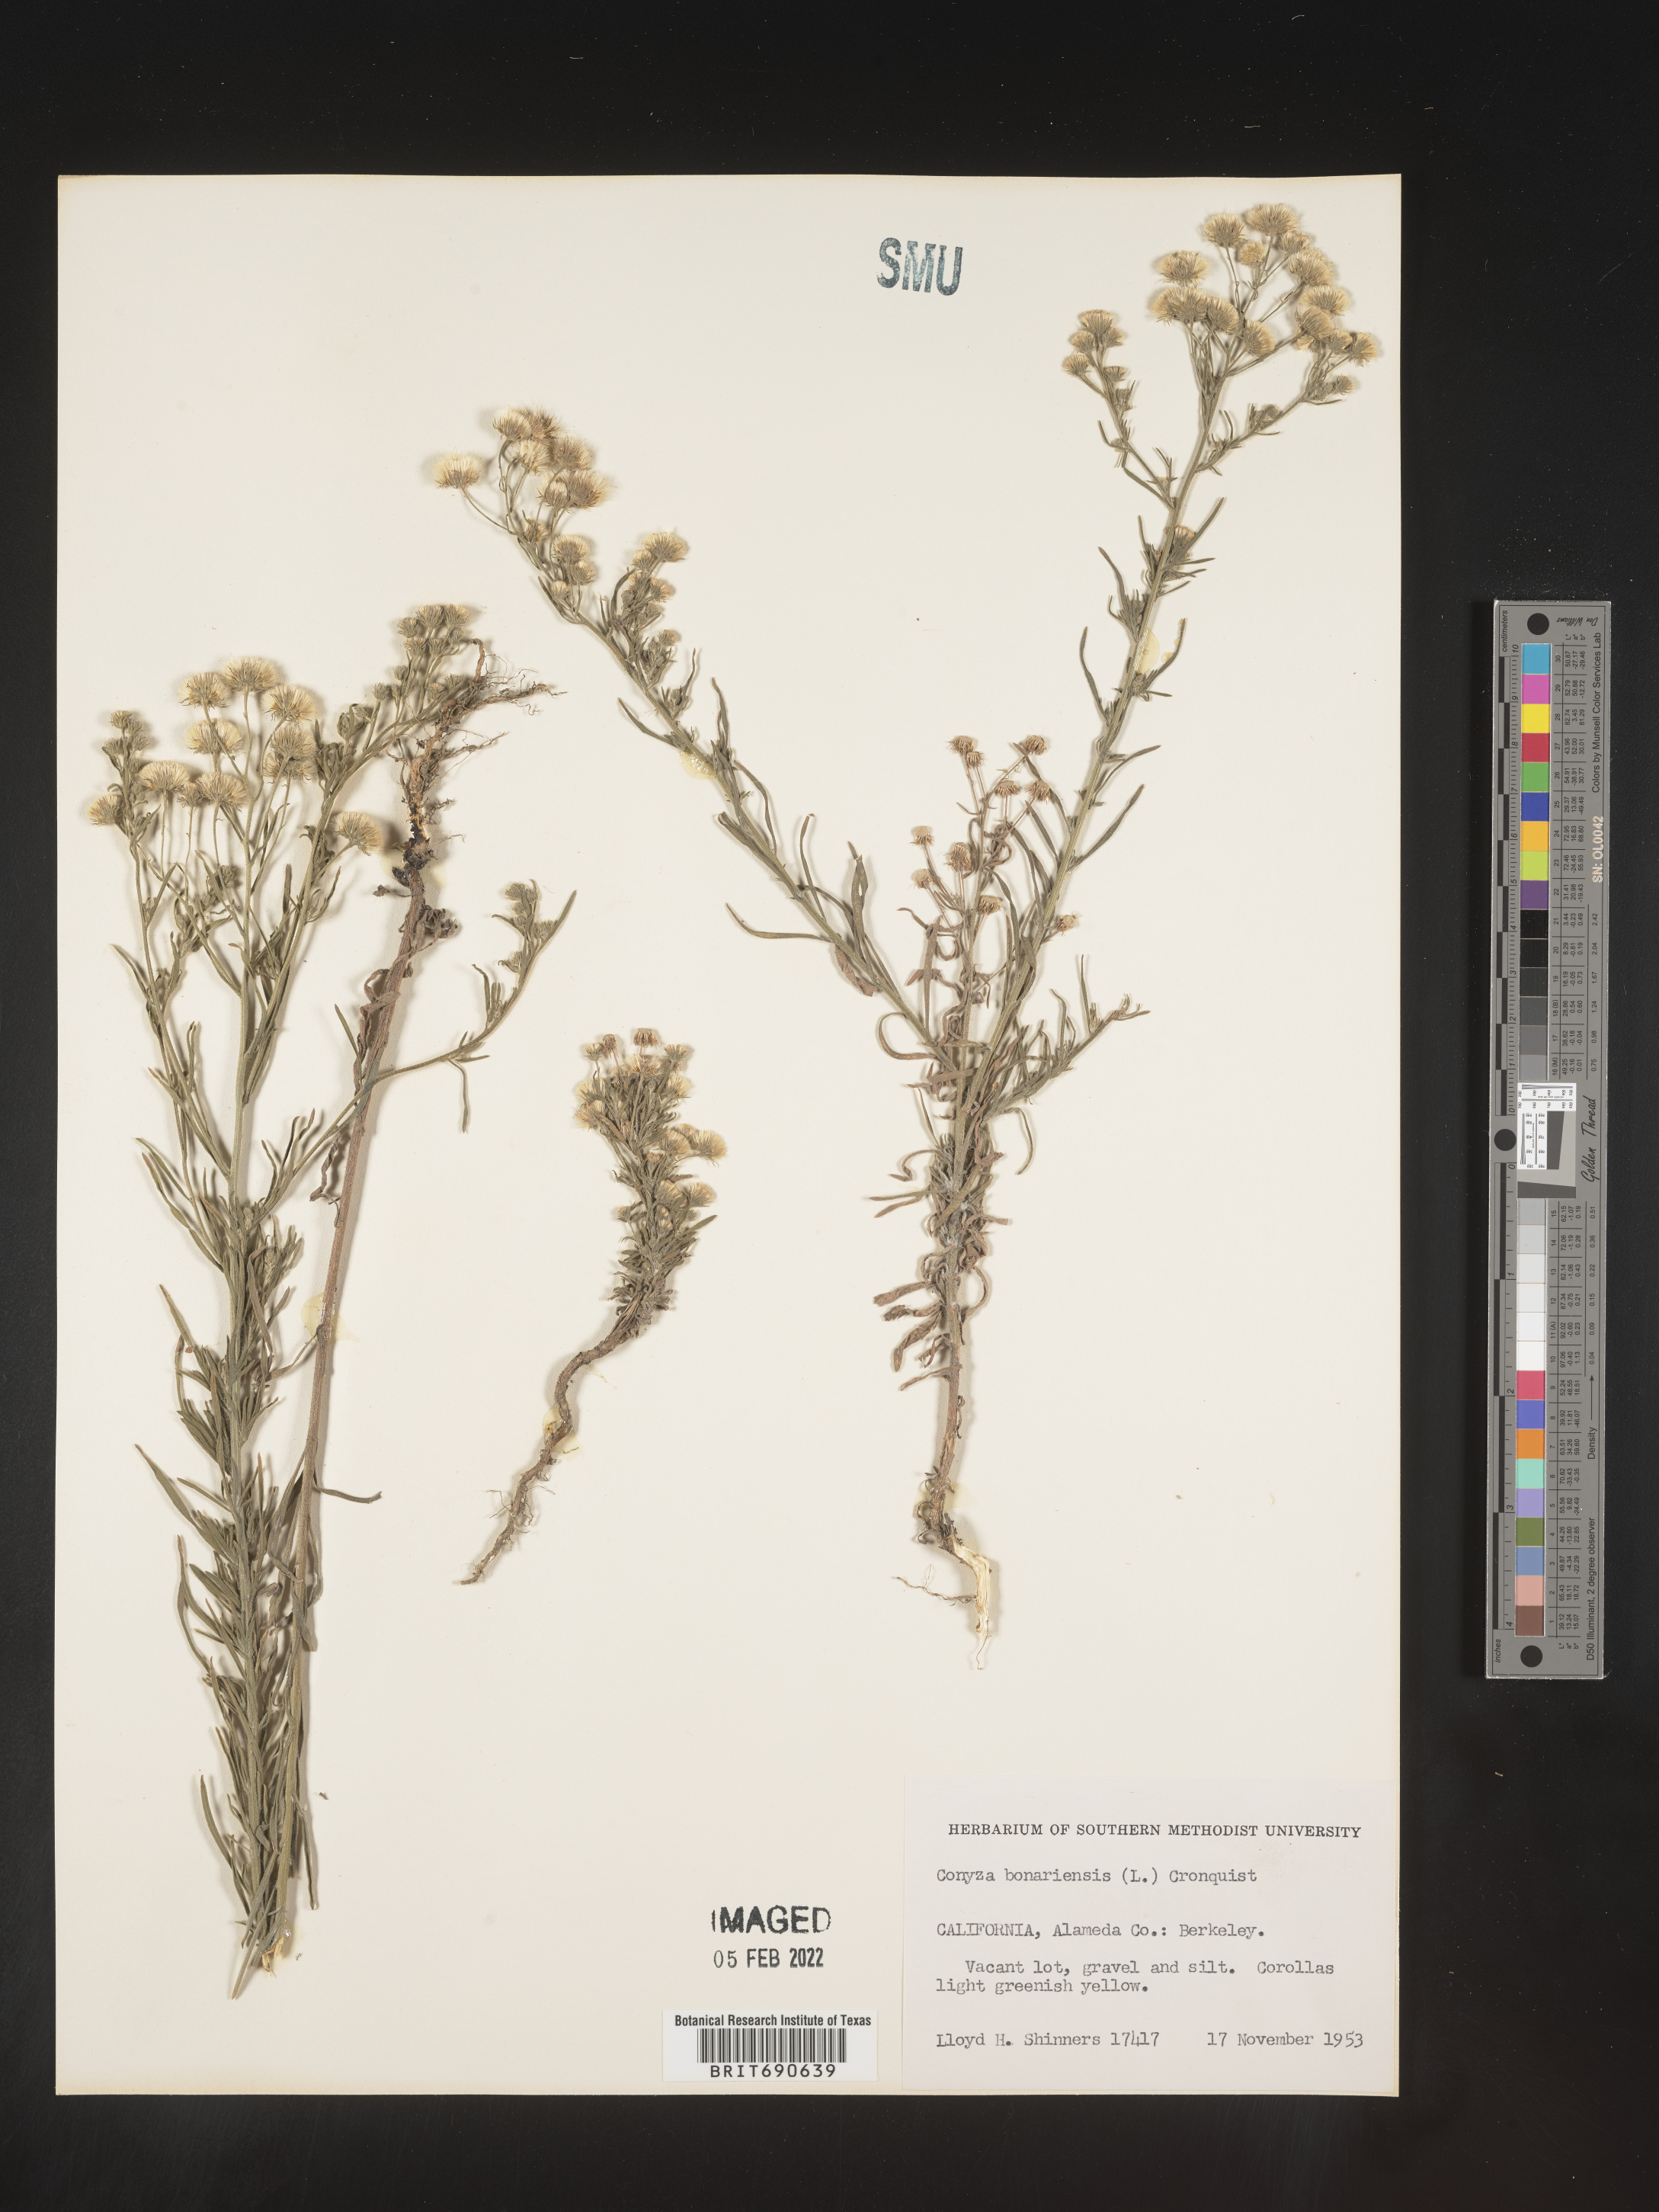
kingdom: Plantae
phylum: Tracheophyta
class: Magnoliopsida
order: Asterales
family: Asteraceae
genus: Erigeron
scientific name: Erigeron bonariensis
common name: Argentine fleabane
